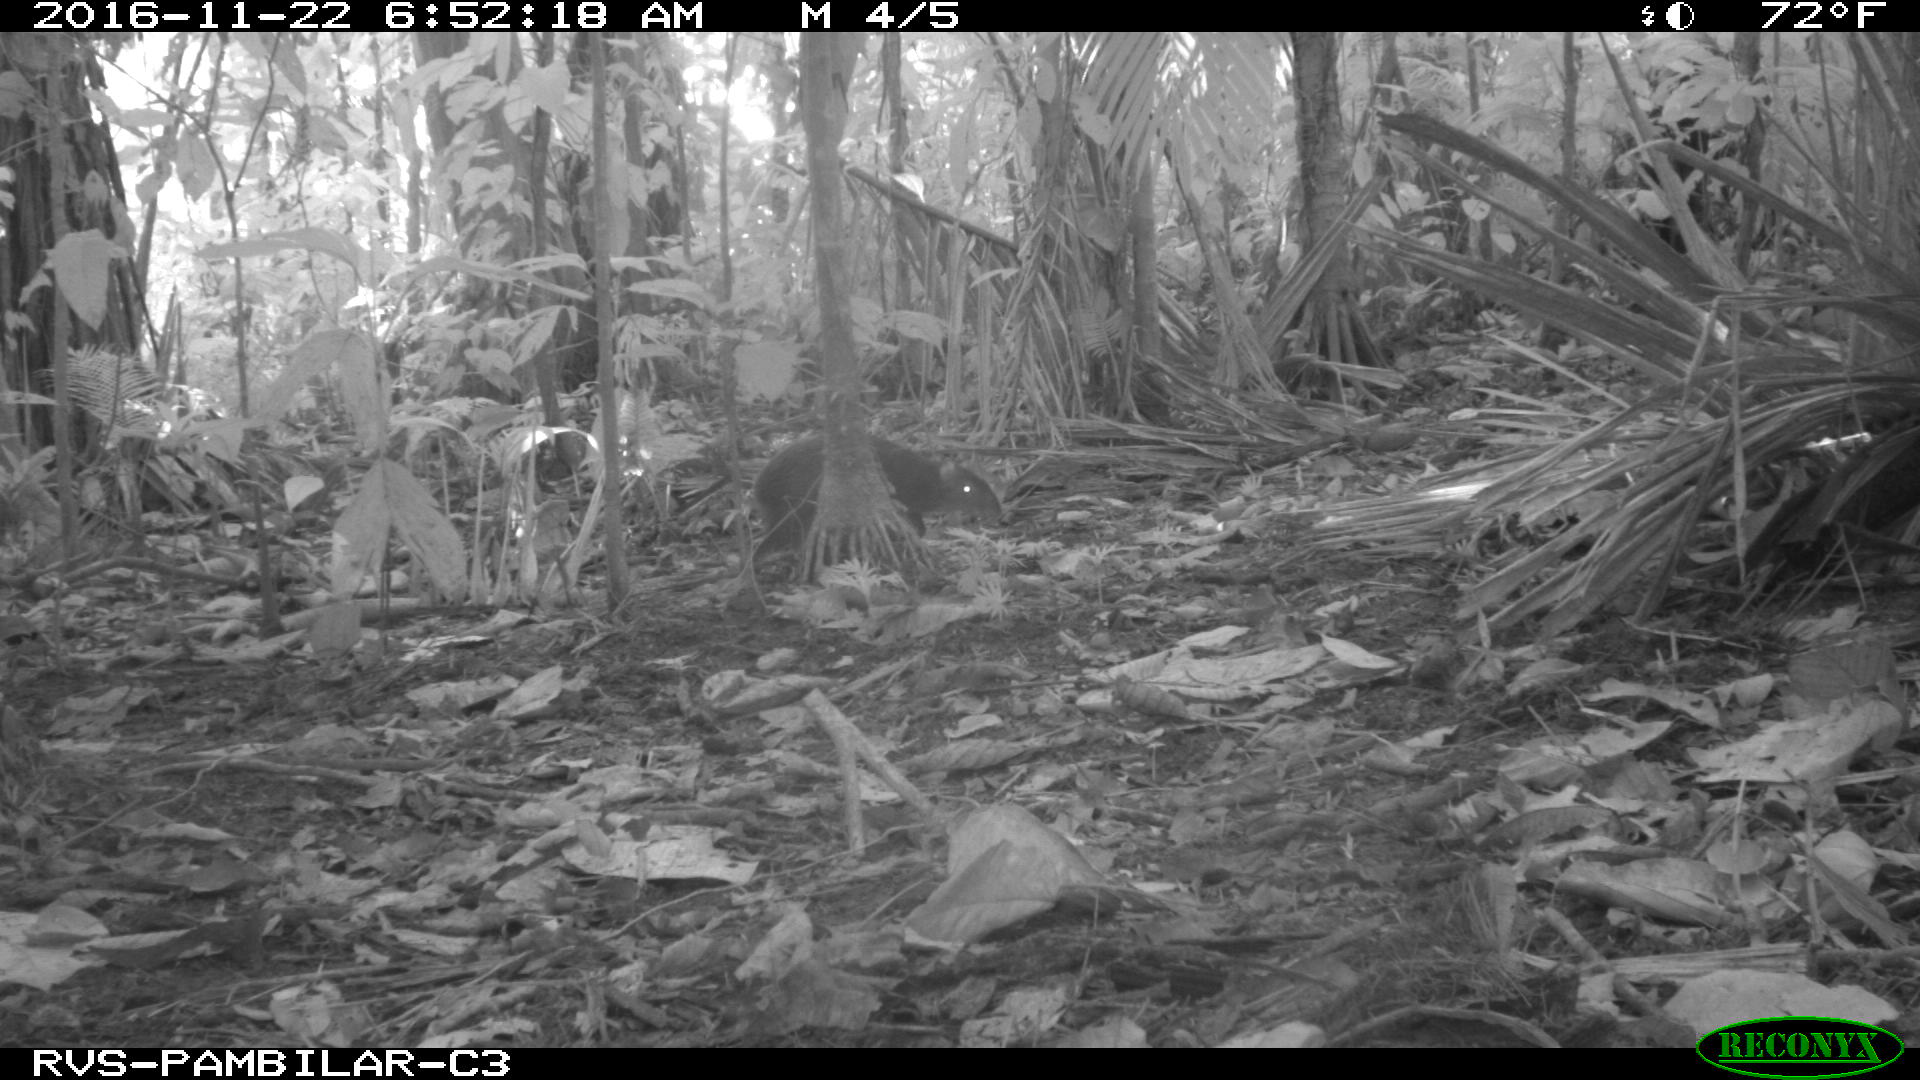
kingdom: Animalia
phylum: Chordata
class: Mammalia
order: Rodentia
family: Dasyproctidae
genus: Dasyprocta
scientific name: Dasyprocta punctata
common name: Central american agouti
